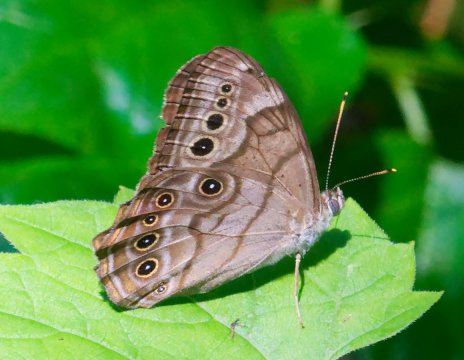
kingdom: Animalia
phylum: Arthropoda
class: Insecta
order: Lepidoptera
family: Nymphalidae
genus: Lethe
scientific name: Lethe anthedon
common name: Northern Pearly-Eye
